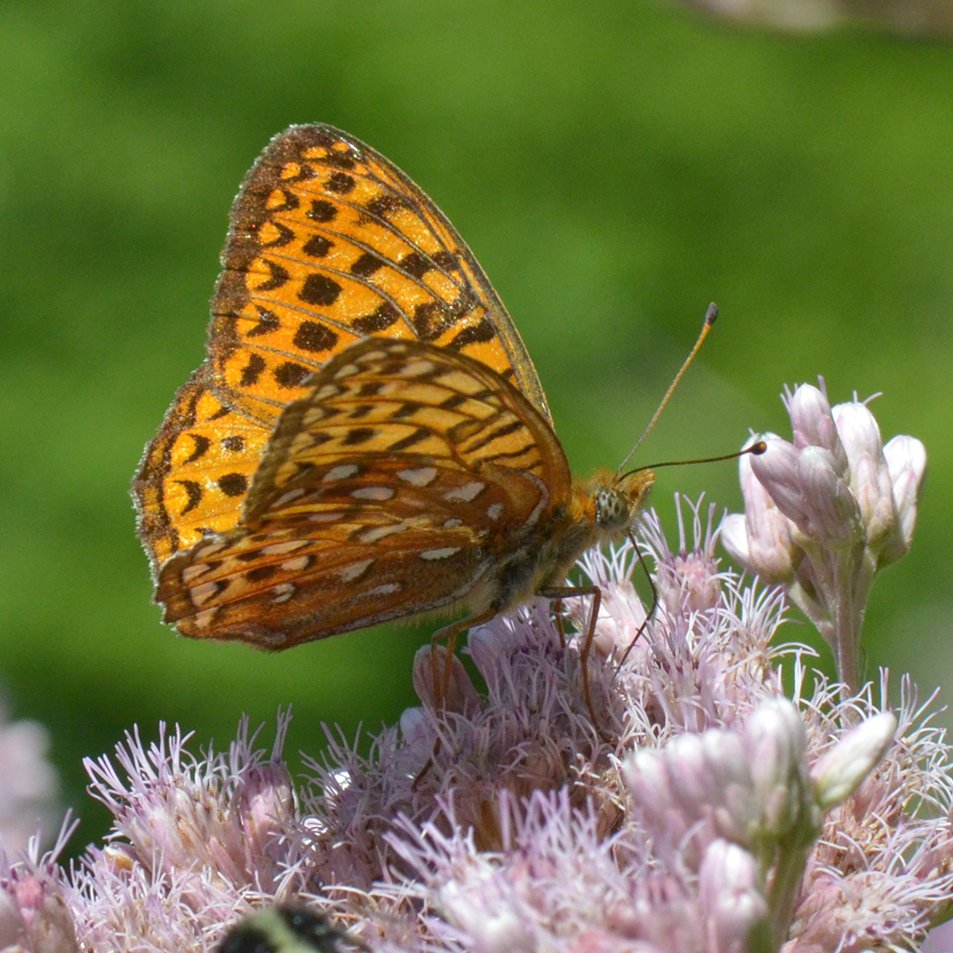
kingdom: Animalia
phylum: Arthropoda
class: Insecta
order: Lepidoptera
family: Nymphalidae
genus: Speyeria
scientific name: Speyeria atlantis
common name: Atlantis Fritillary
